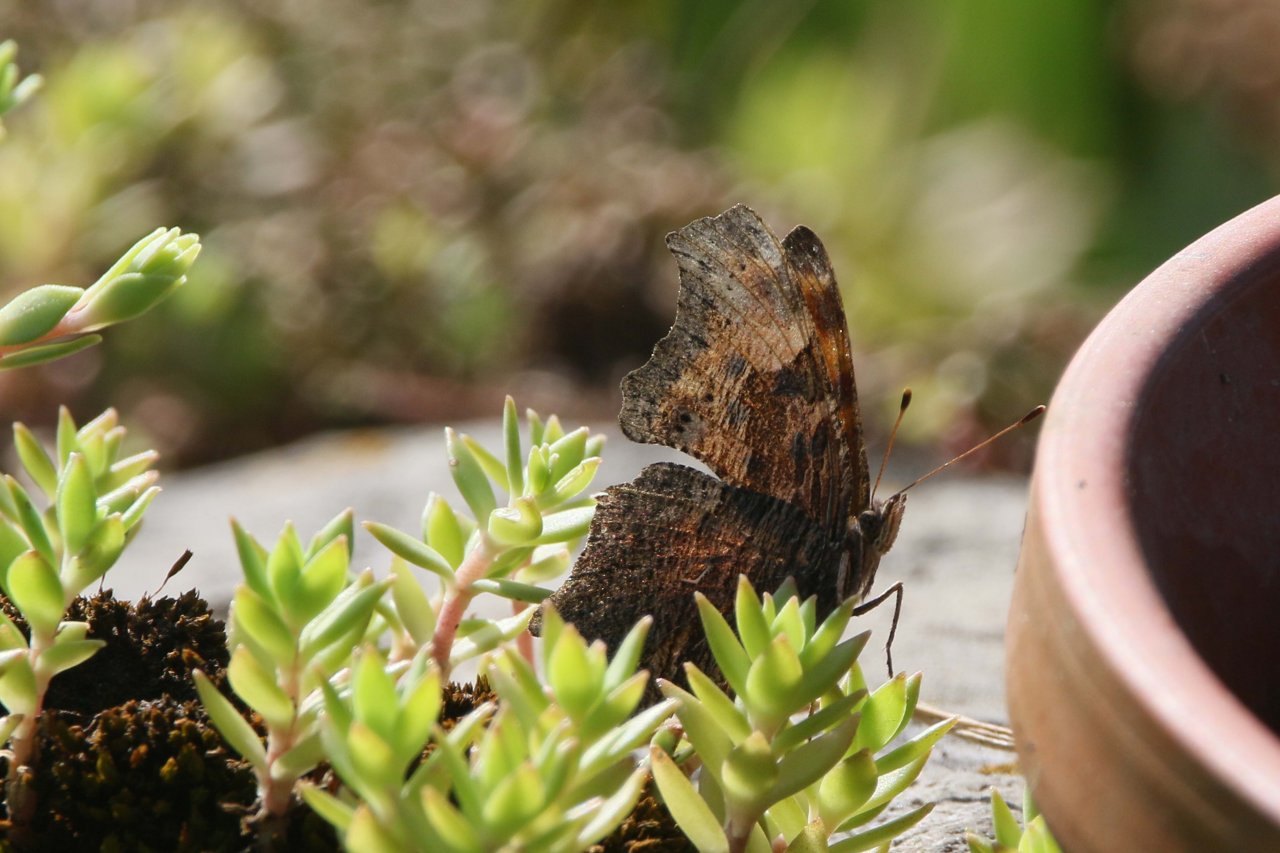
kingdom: Animalia
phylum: Arthropoda
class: Insecta
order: Lepidoptera
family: Nymphalidae
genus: Polygonia
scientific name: Polygonia progne
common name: Gray Comma
